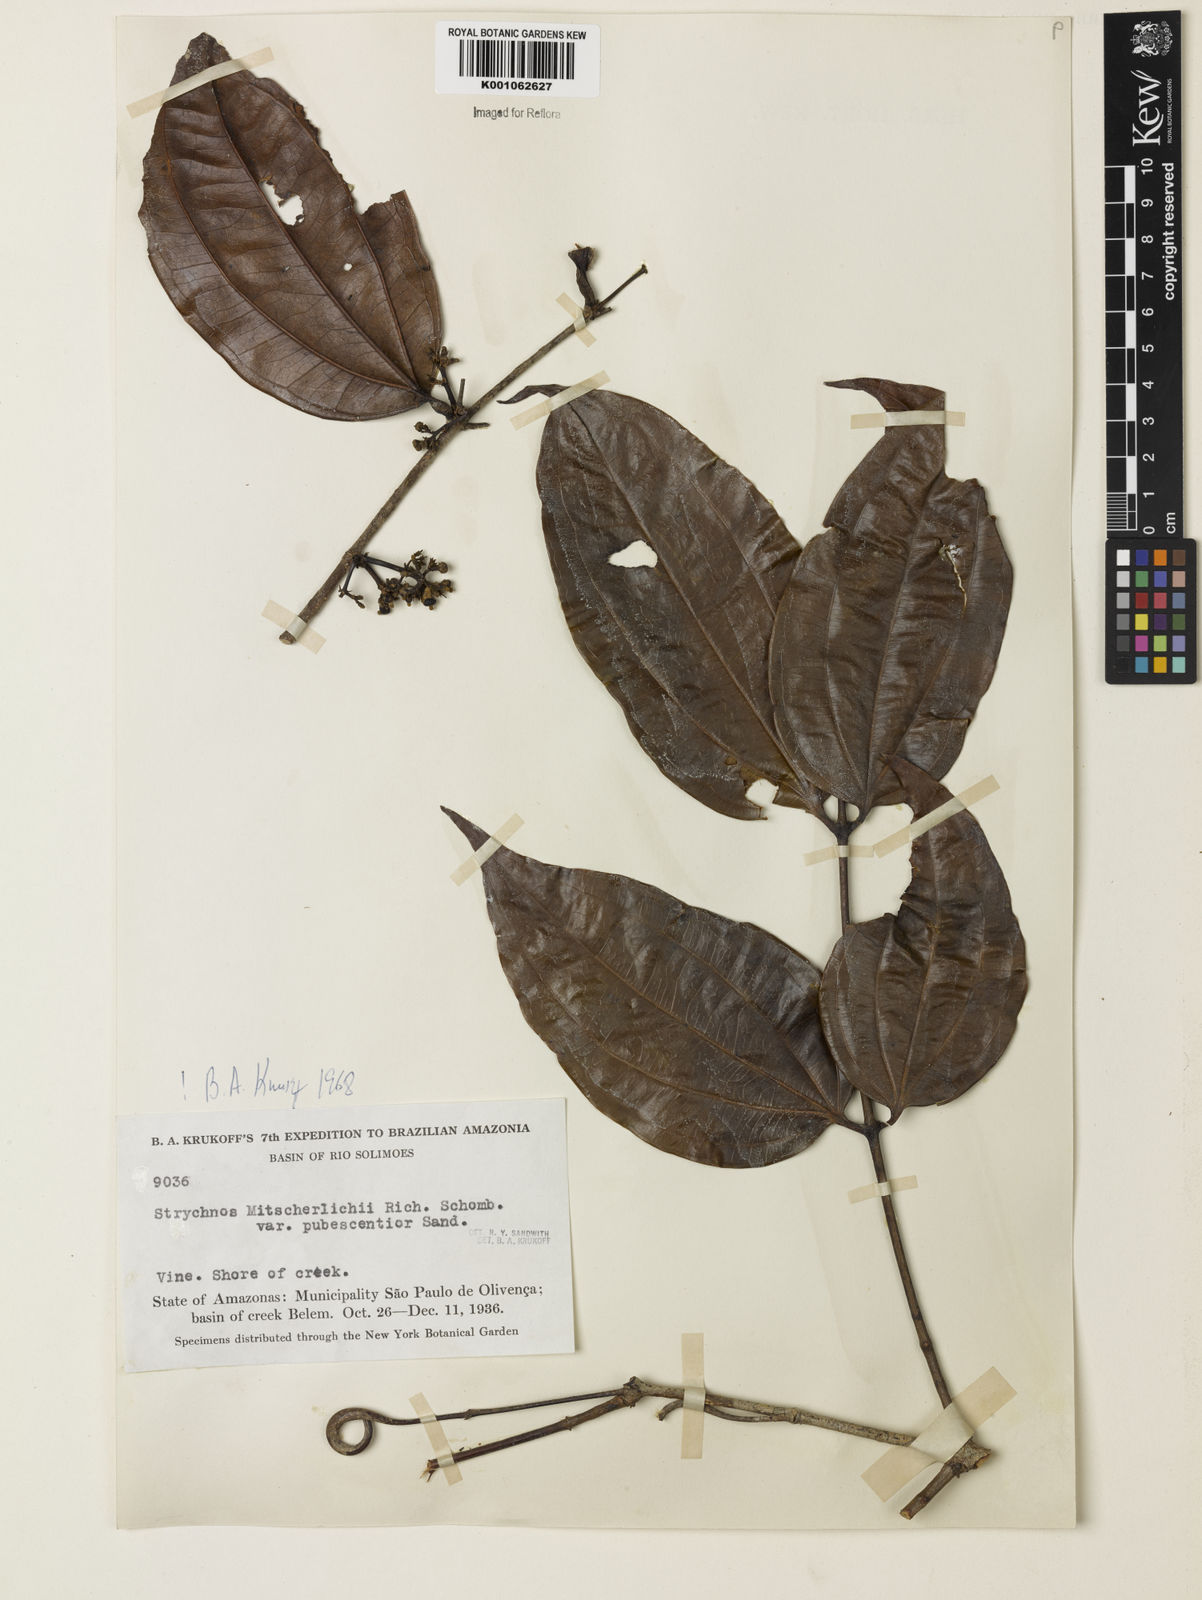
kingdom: Plantae
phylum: Tracheophyta
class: Magnoliopsida
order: Gentianales
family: Loganiaceae
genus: Strychnos
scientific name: Strychnos mitscherlichii
